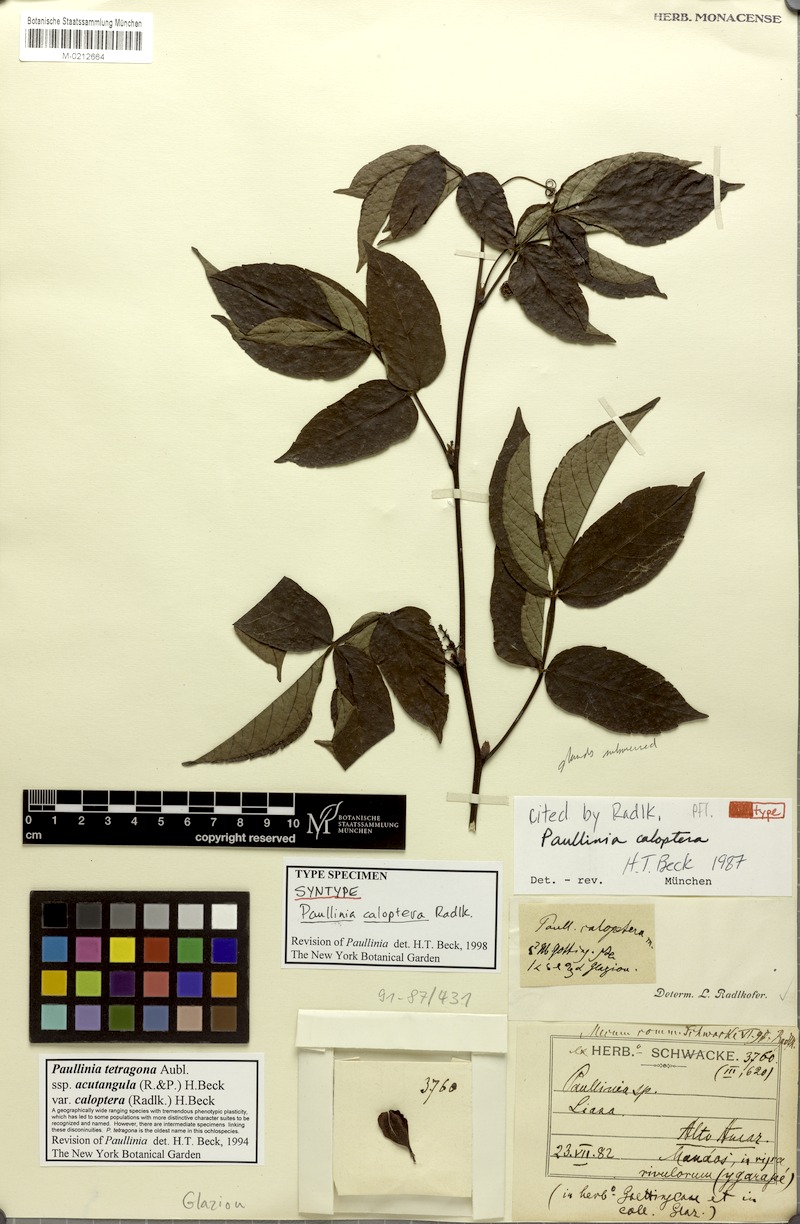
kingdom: Plantae
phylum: Tracheophyta
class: Magnoliopsida
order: Sapindales
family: Sapindaceae
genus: Paullinia
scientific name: Paullinia tetragona
